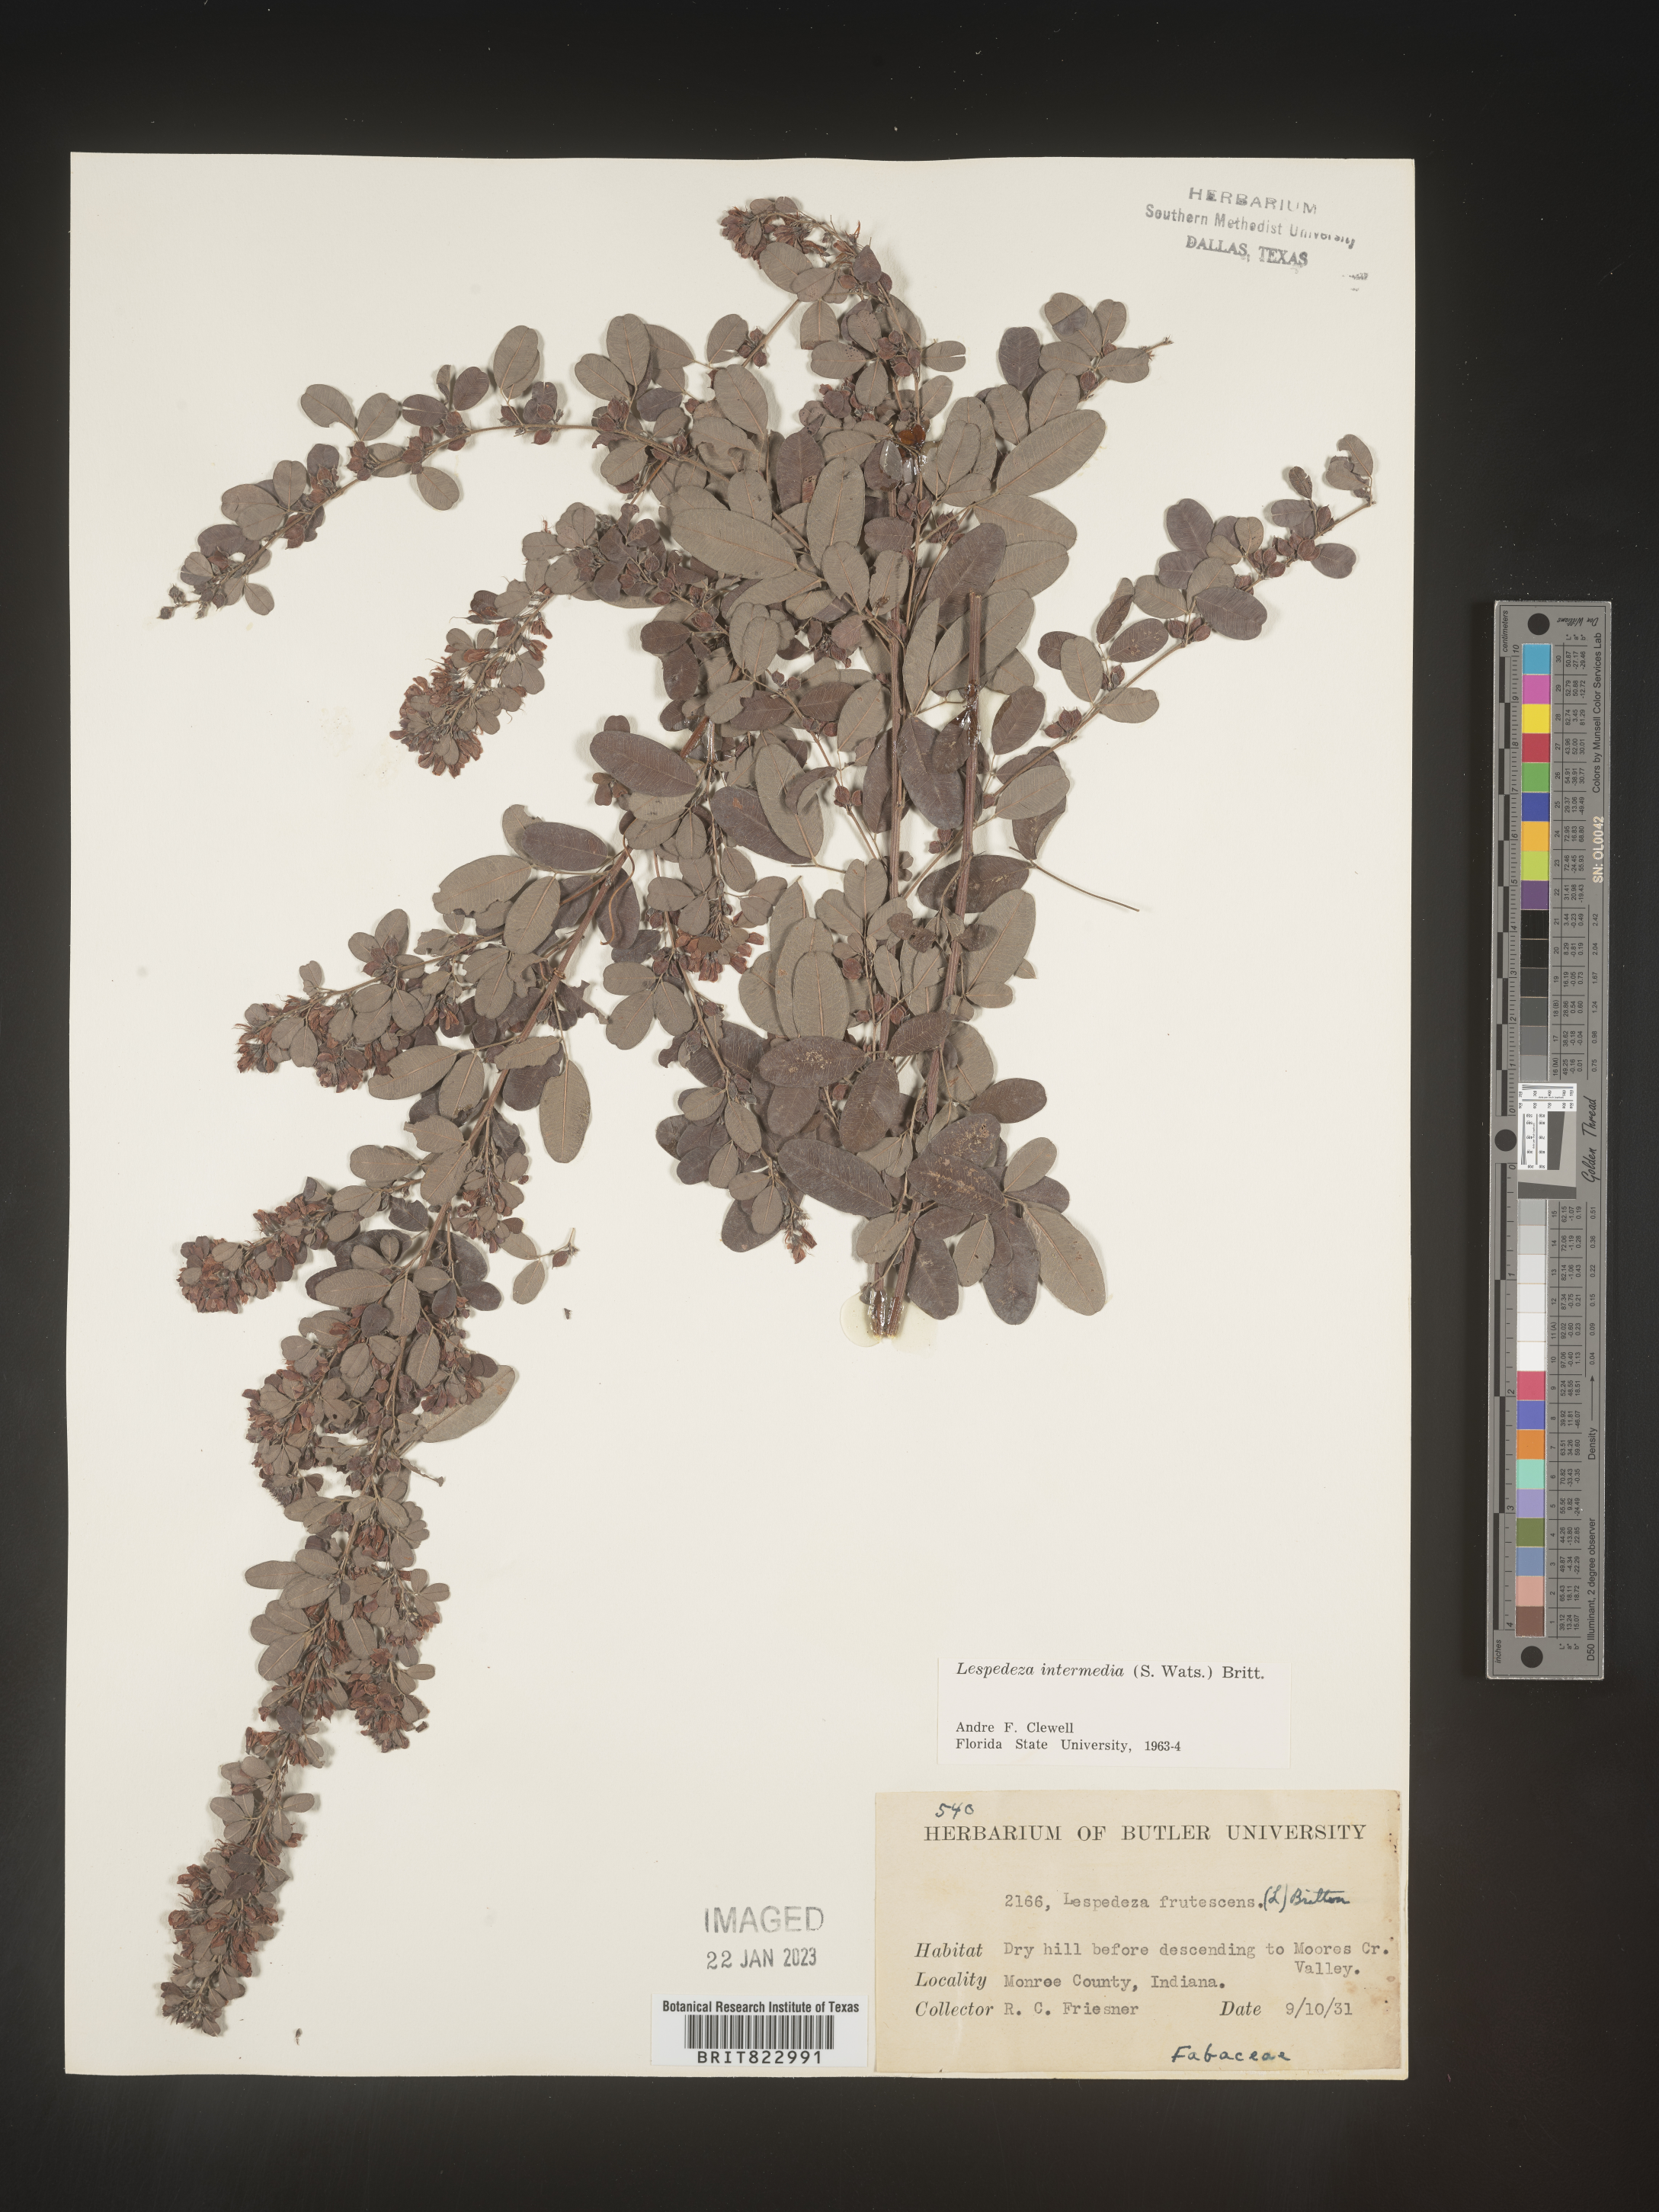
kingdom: Plantae
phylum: Tracheophyta
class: Magnoliopsida
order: Fabales
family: Fabaceae
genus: Lespedeza
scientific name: Lespedeza
